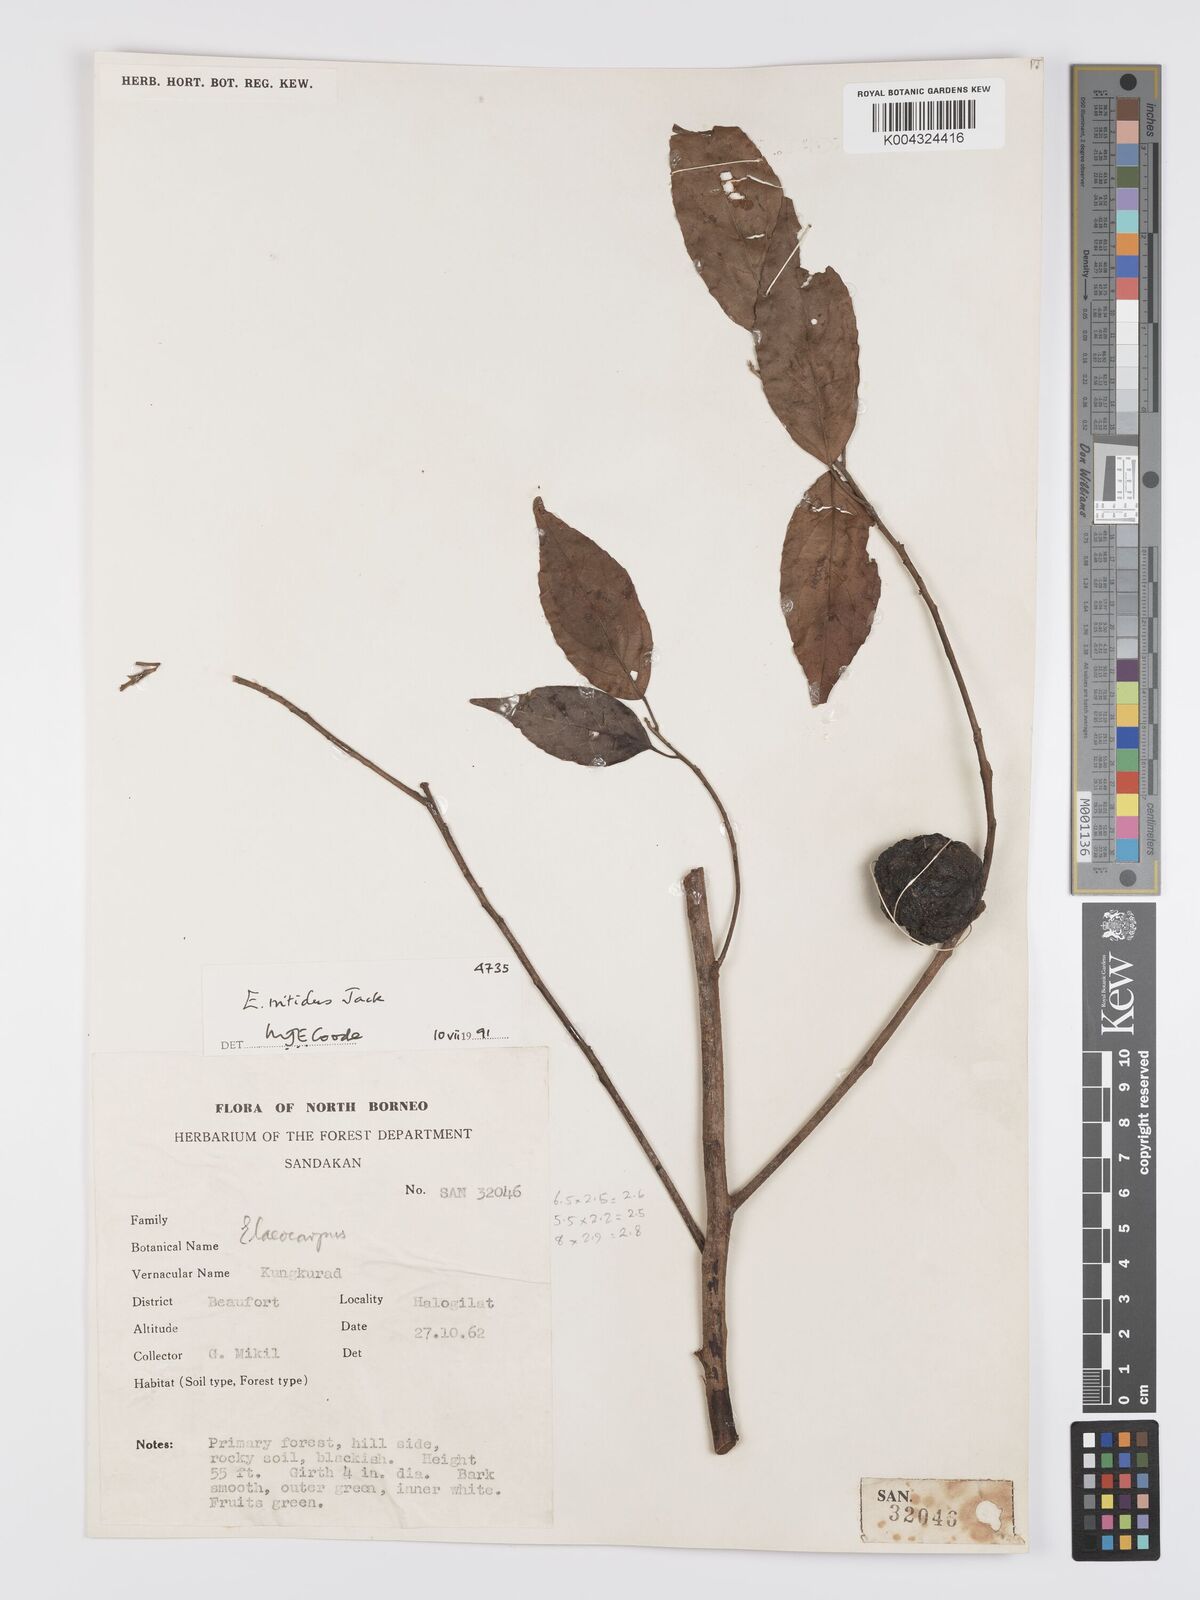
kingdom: Plantae
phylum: Tracheophyta
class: Magnoliopsida
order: Oxalidales
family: Elaeocarpaceae
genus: Elaeocarpus
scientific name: Elaeocarpus nitidus
